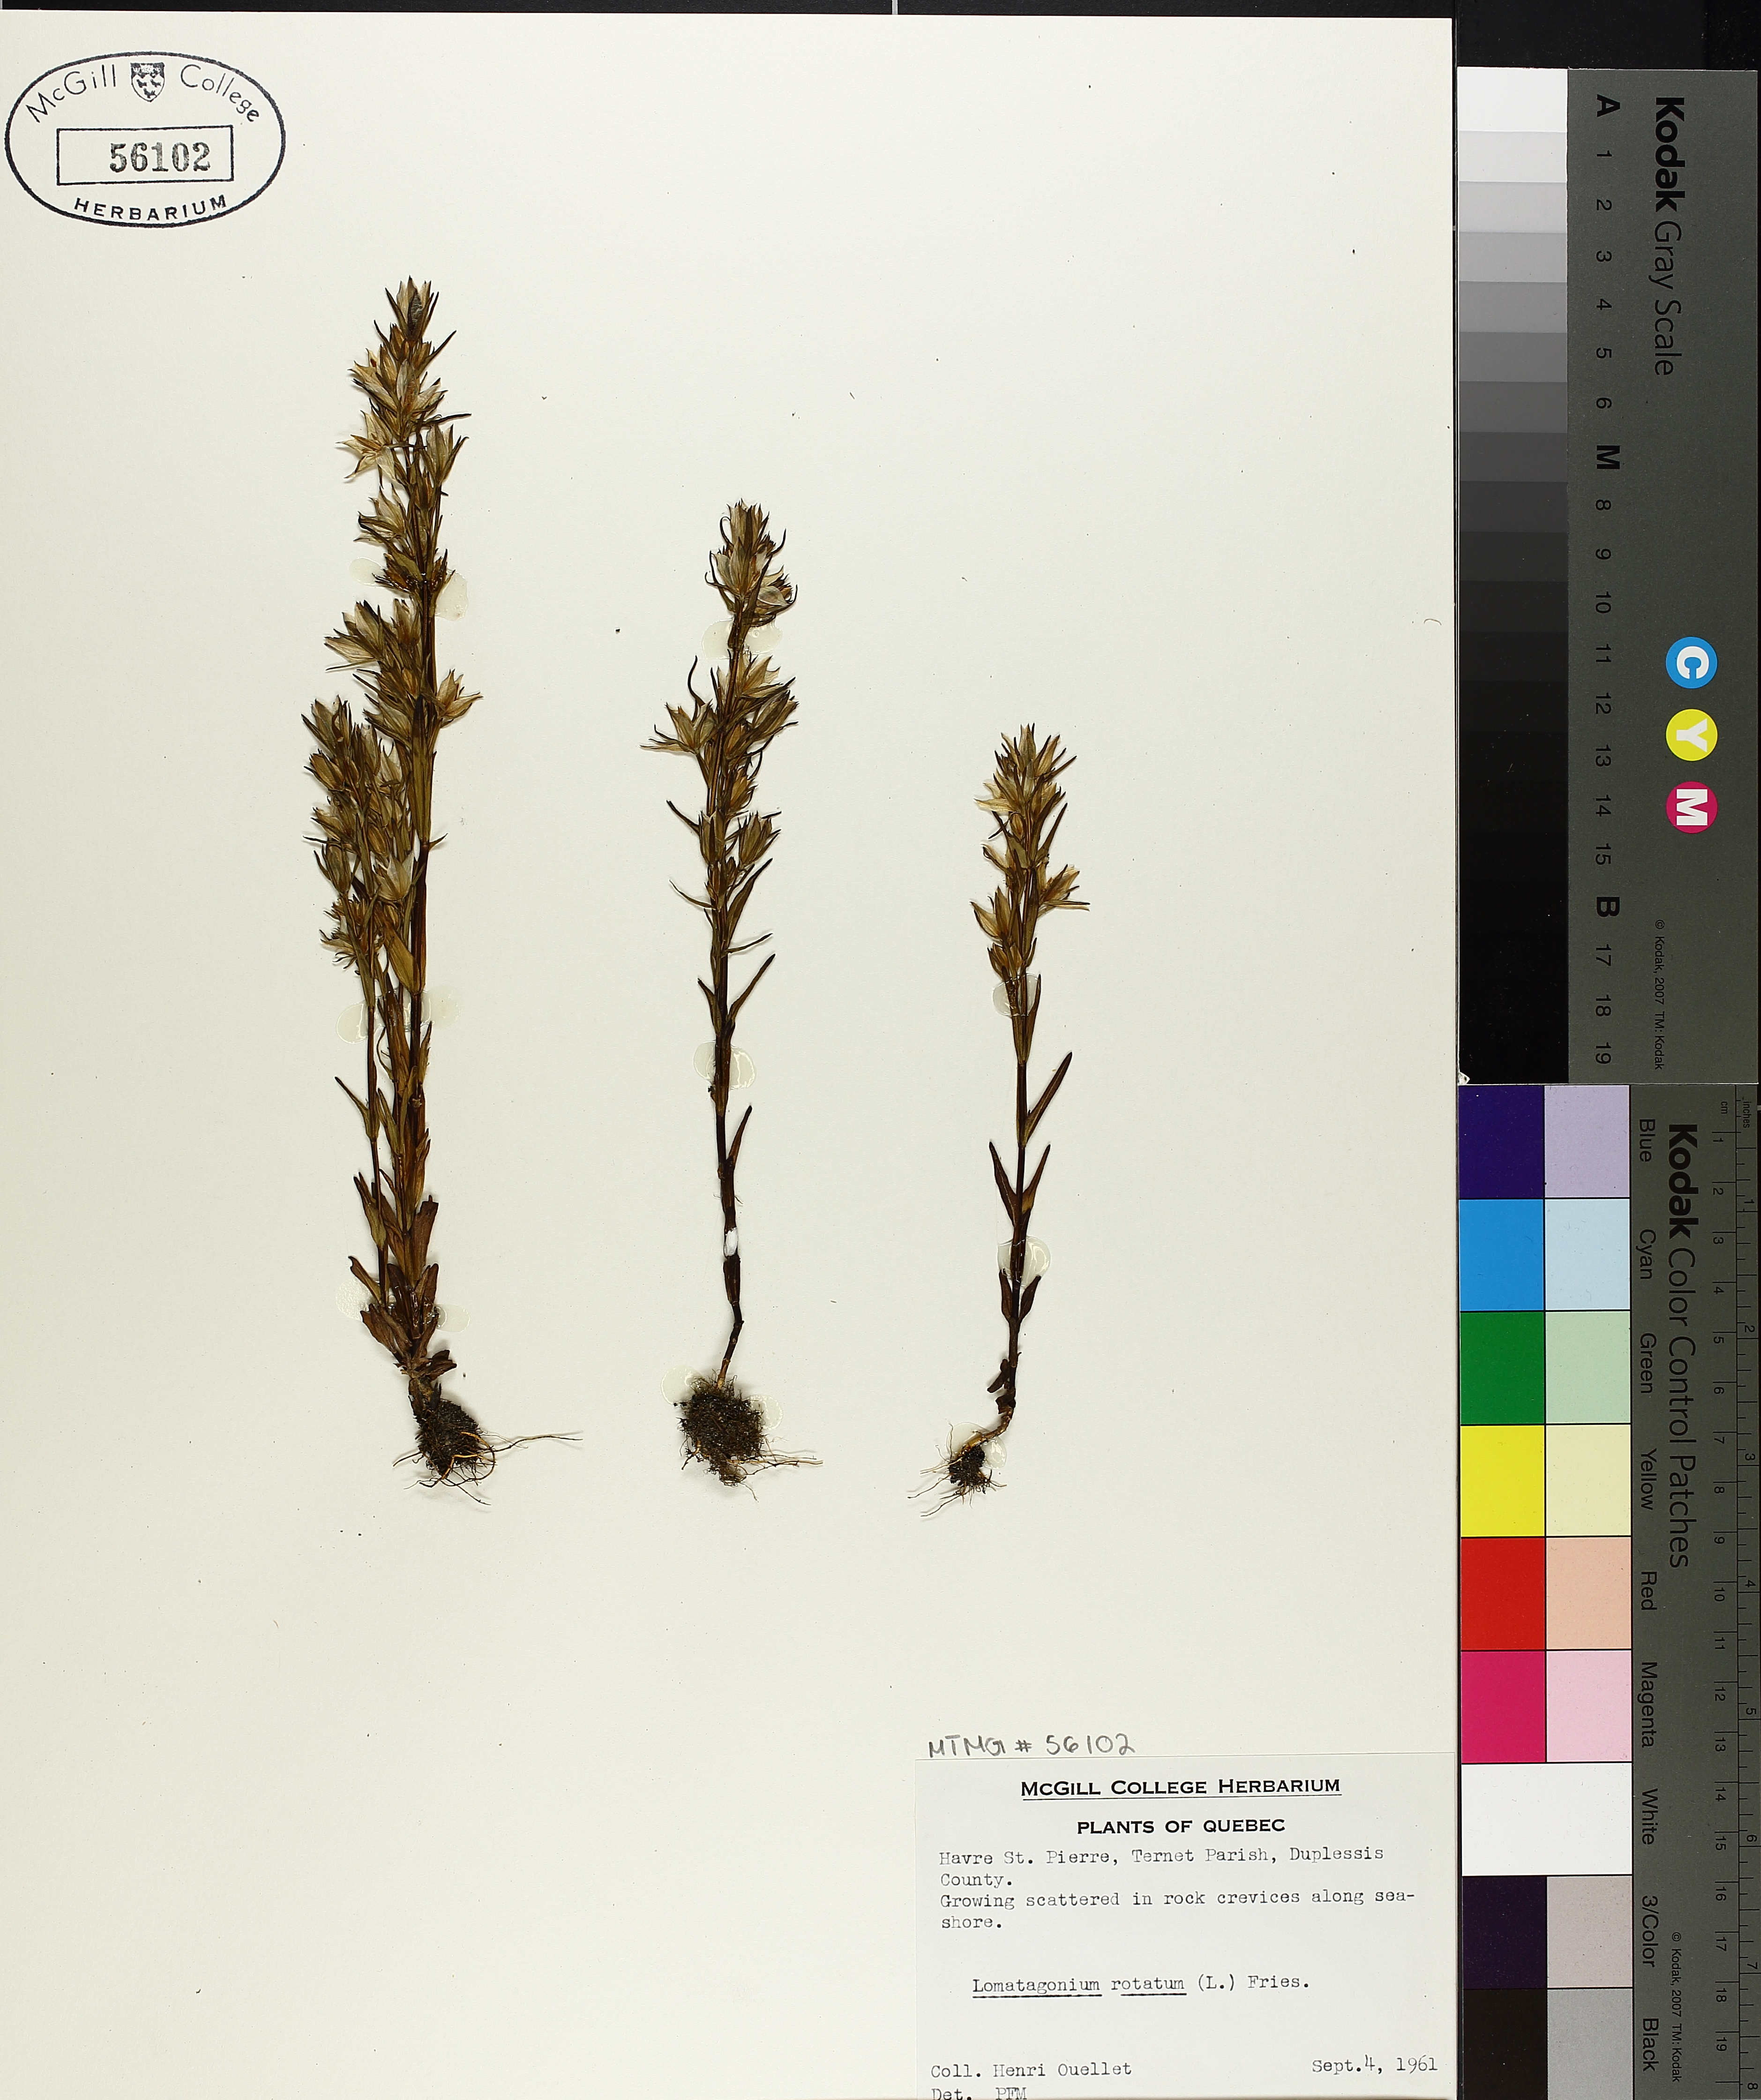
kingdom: Plantae
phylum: Tracheophyta
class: Magnoliopsida
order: Gentianales
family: Gentianaceae
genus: Lomatogonium
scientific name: Lomatogonium rotatum
